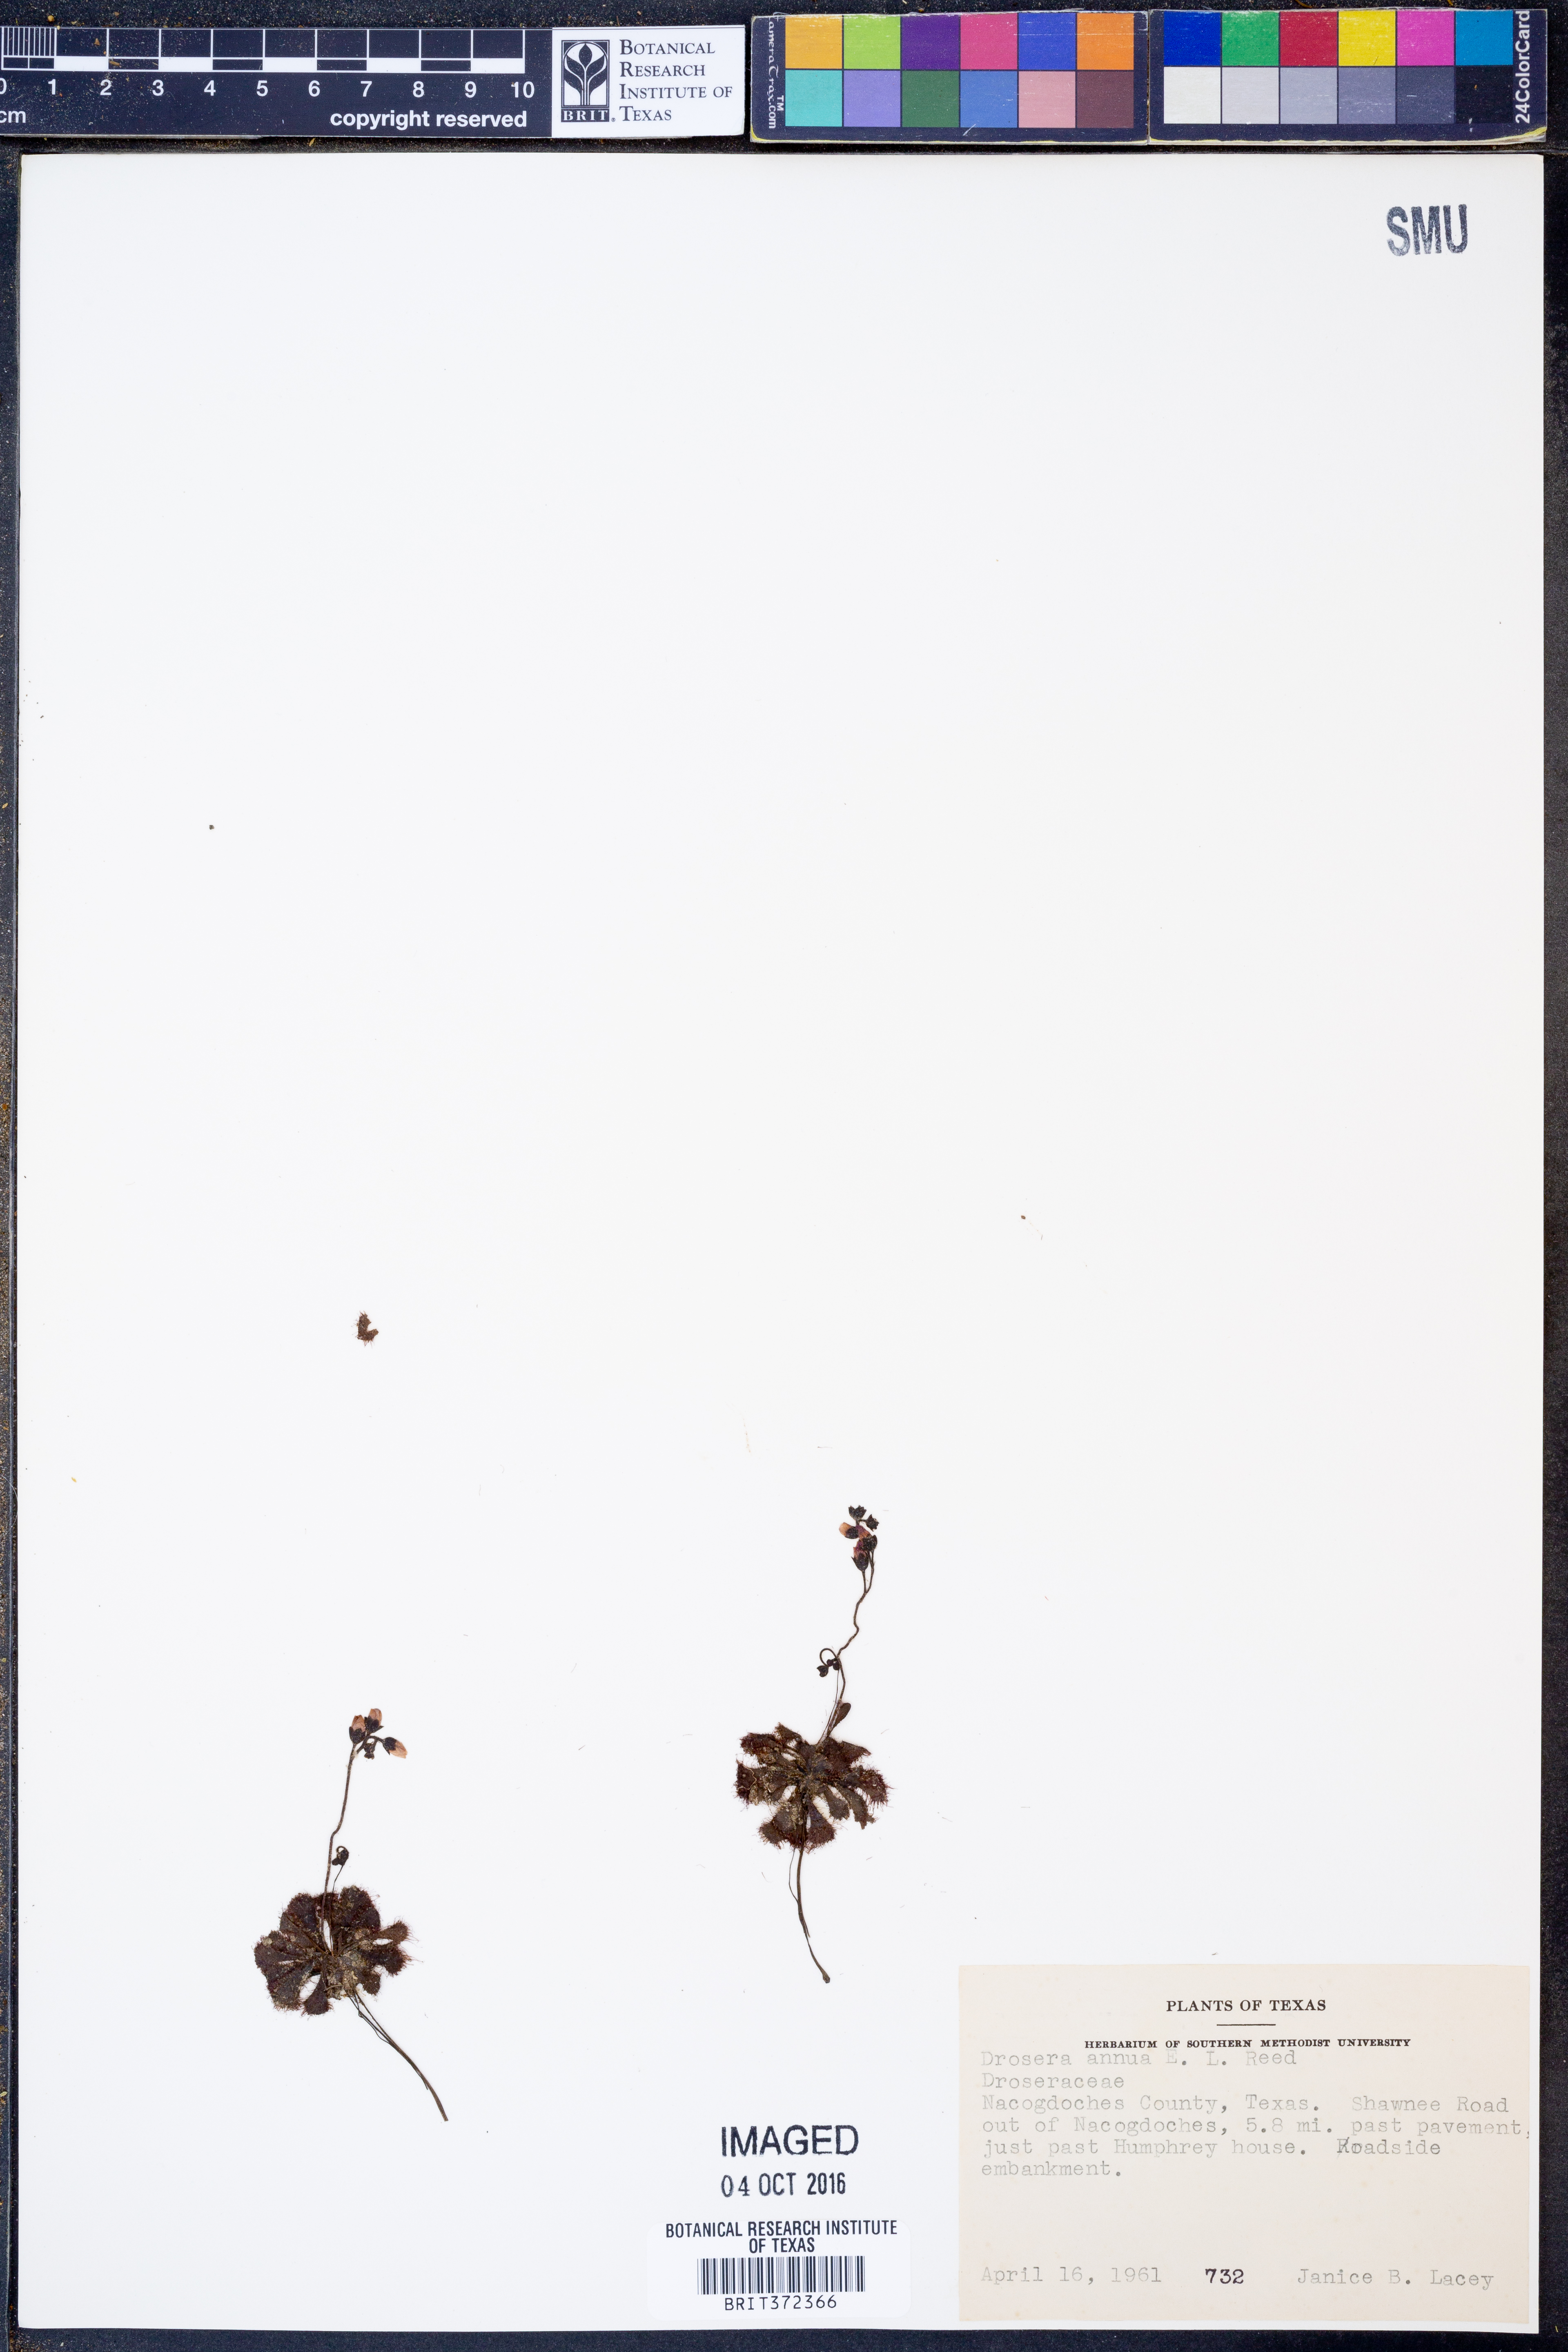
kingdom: Plantae
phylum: Tracheophyta
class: Magnoliopsida
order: Caryophyllales
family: Droseraceae
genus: Drosera
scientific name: Drosera brevifolia
